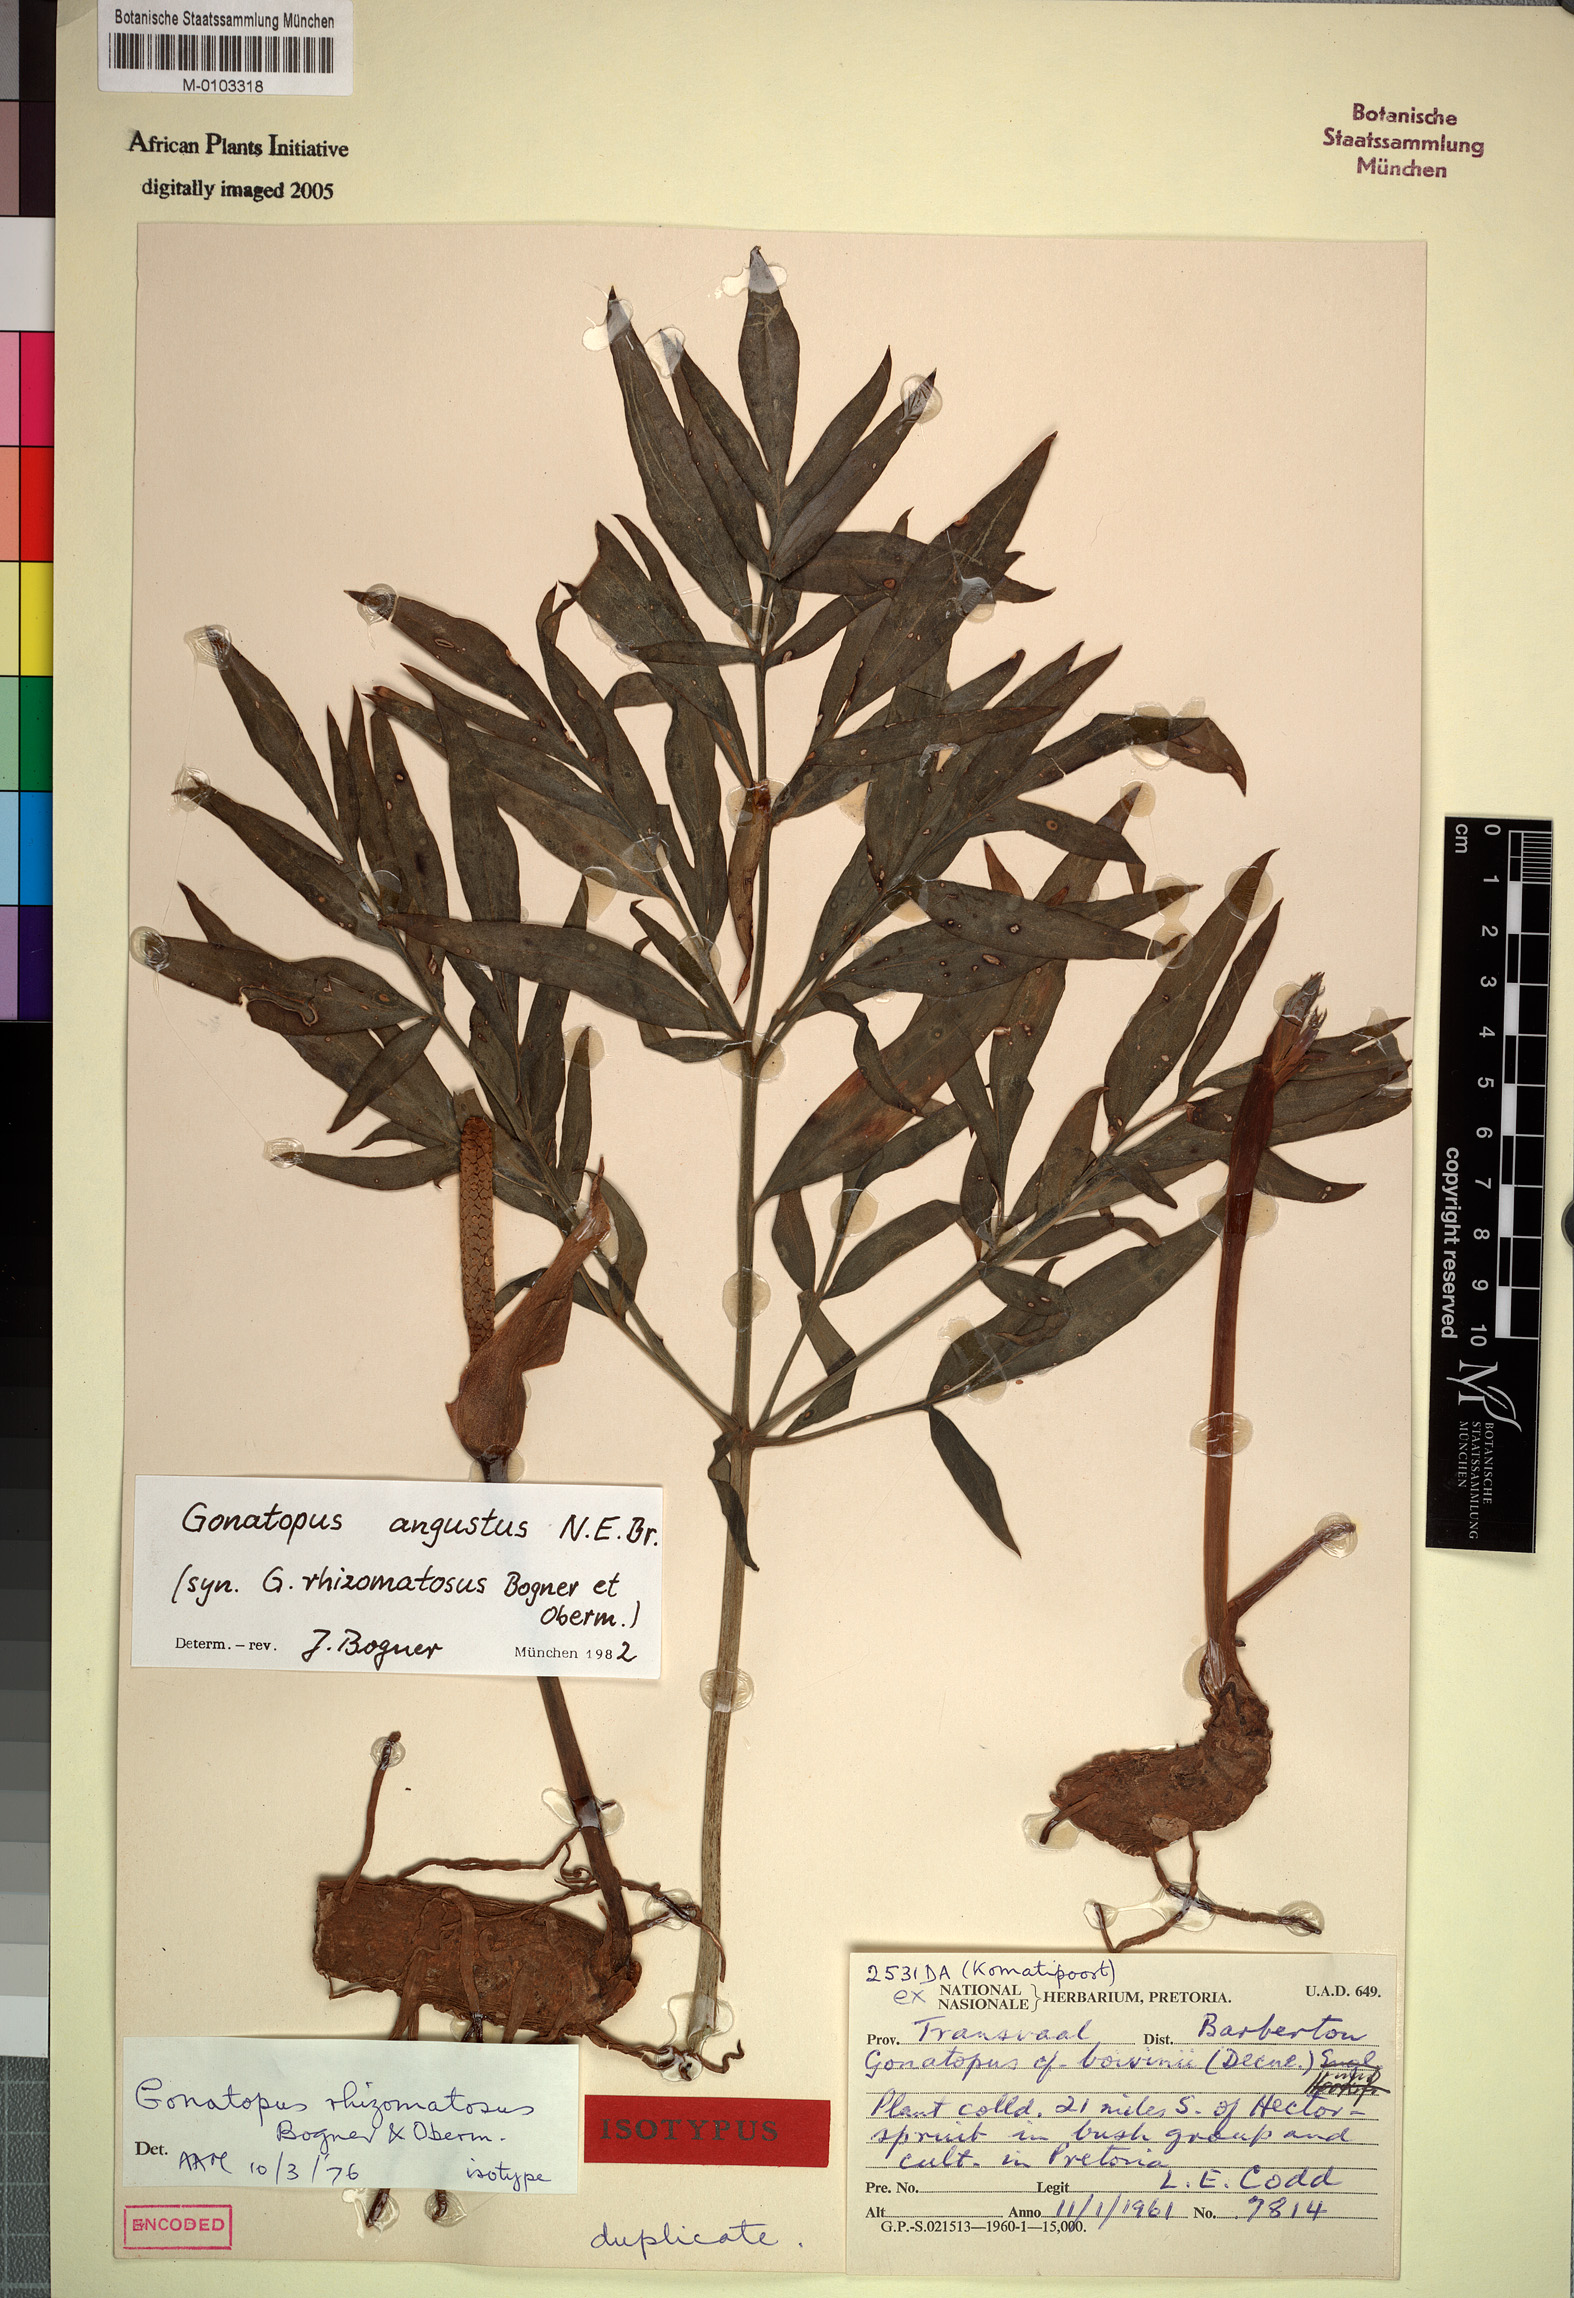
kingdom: Plantae
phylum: Tracheophyta
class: Liliopsida
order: Alismatales
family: Araceae
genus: Gonatopus
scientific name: Gonatopus angustus
